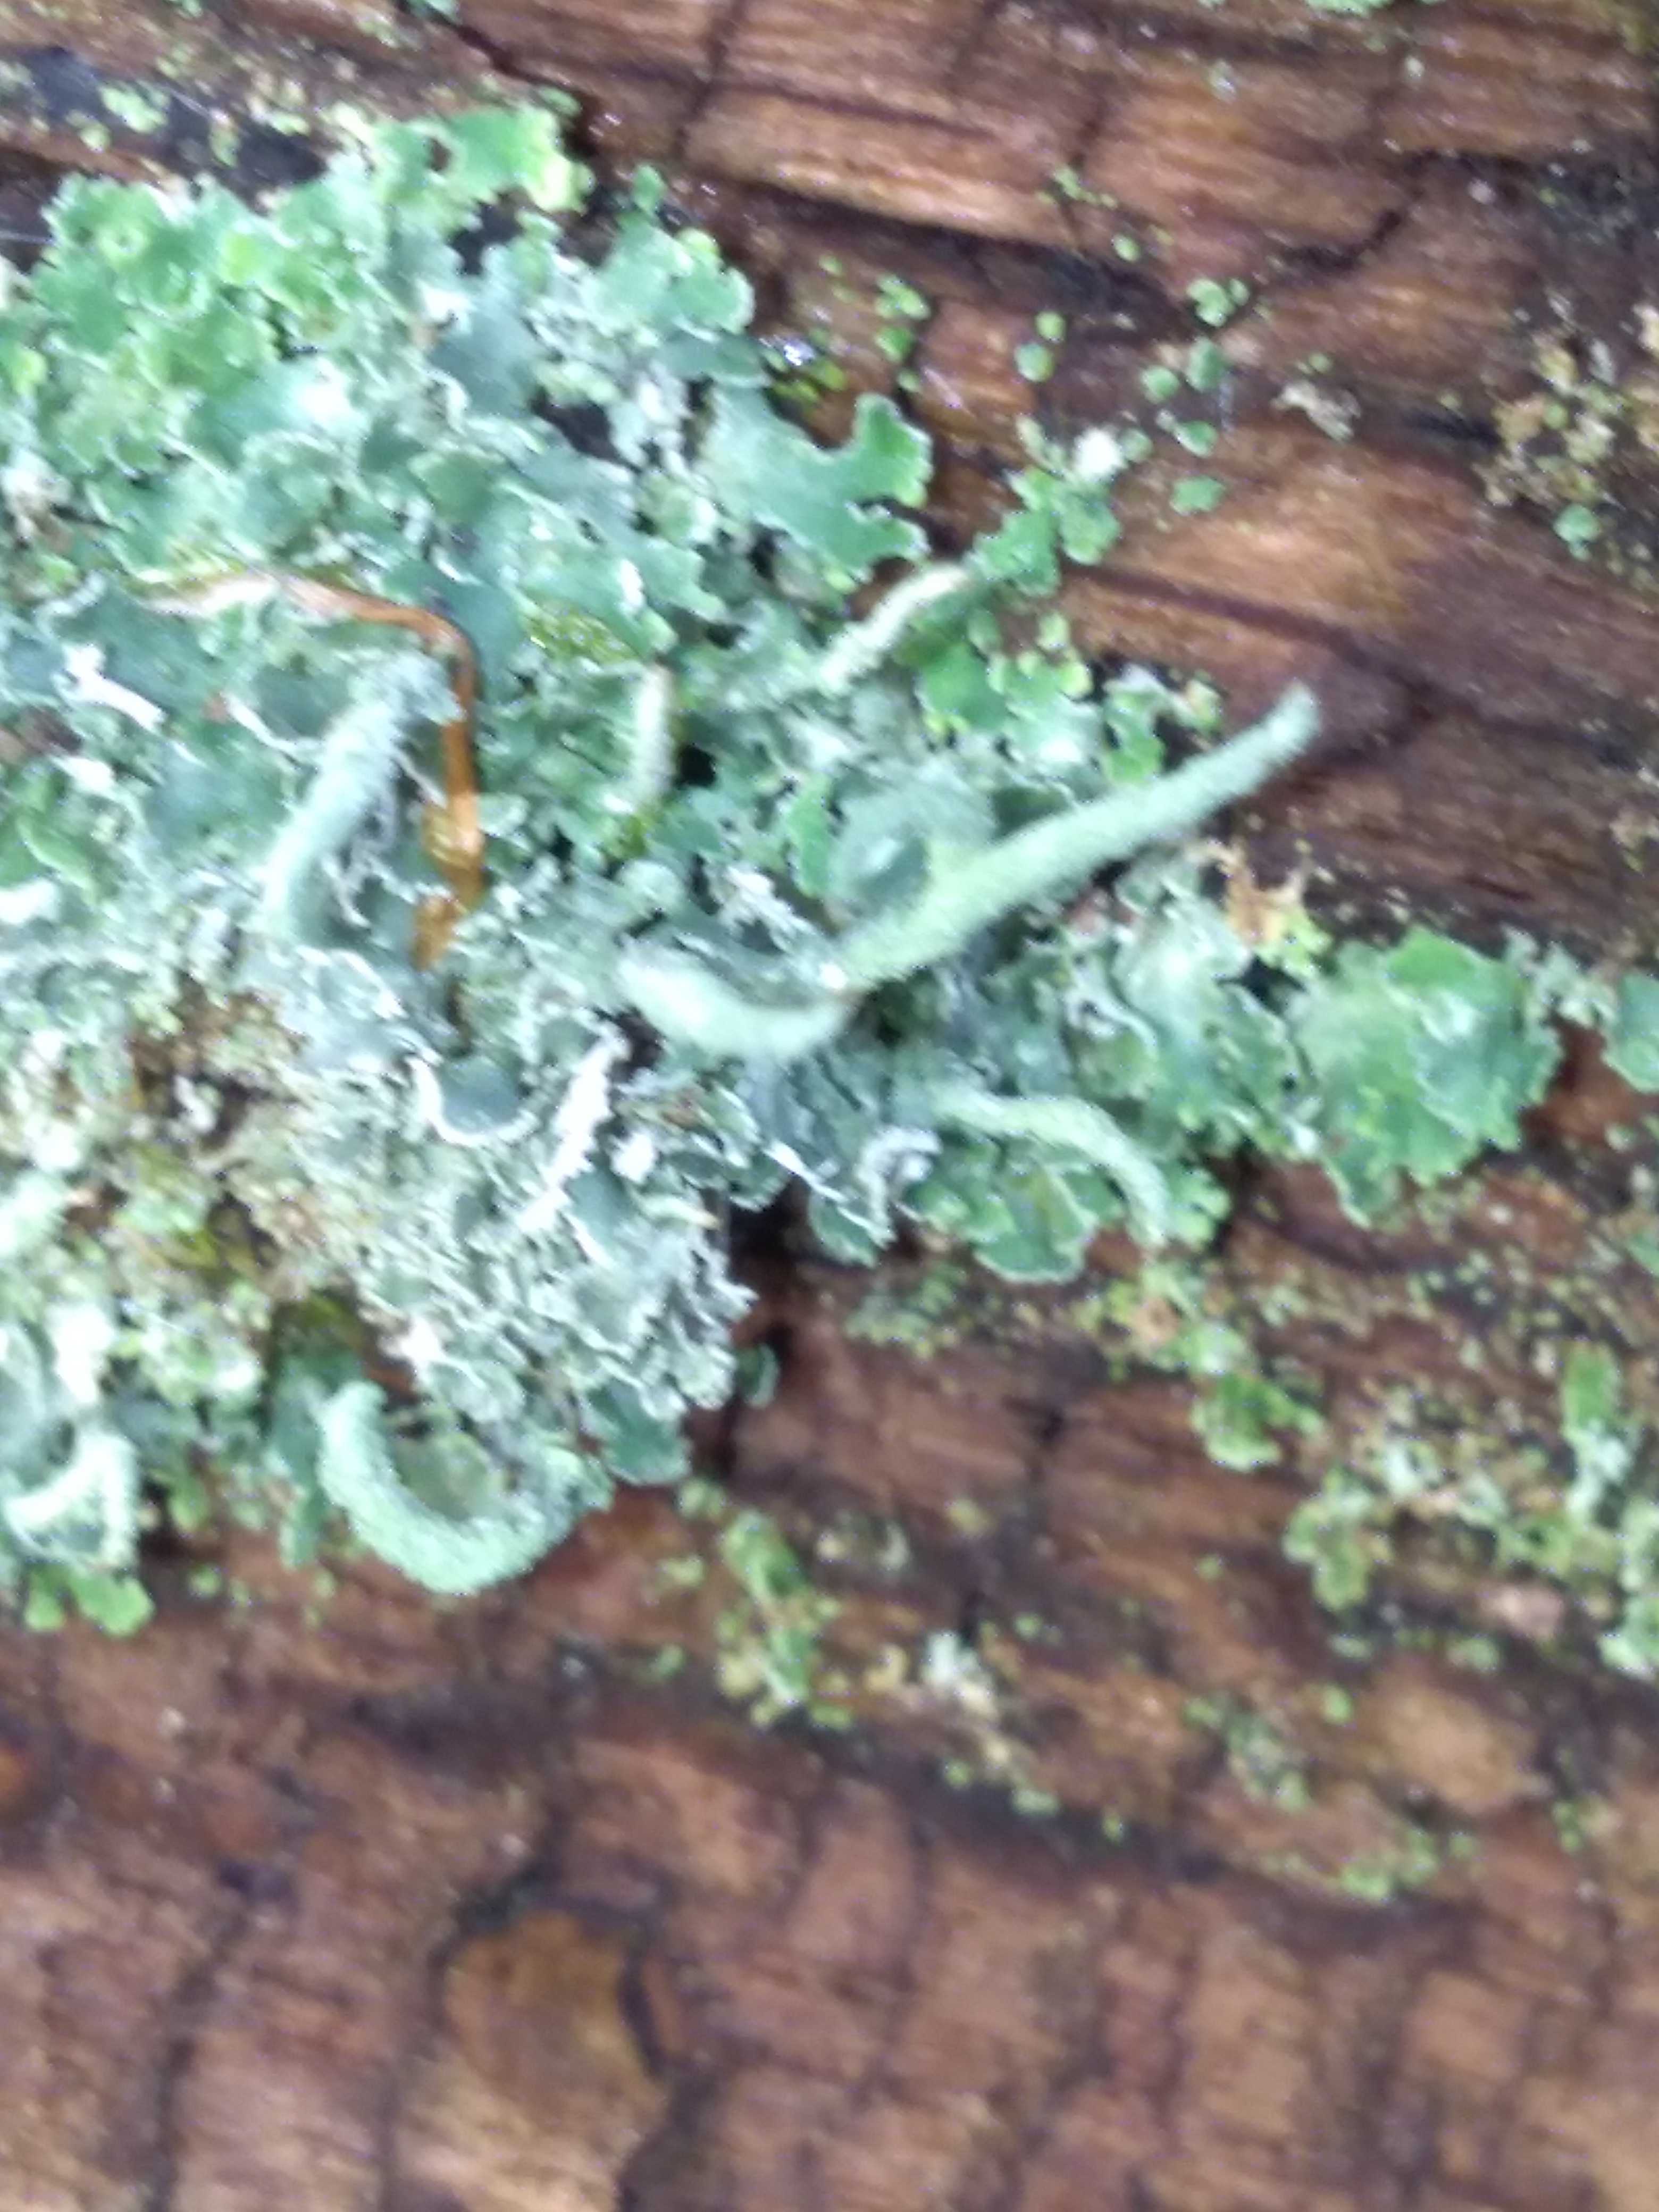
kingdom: Fungi
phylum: Ascomycota
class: Lecanoromycetes
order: Lecanorales
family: Cladoniaceae
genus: Cladonia
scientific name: Cladonia
